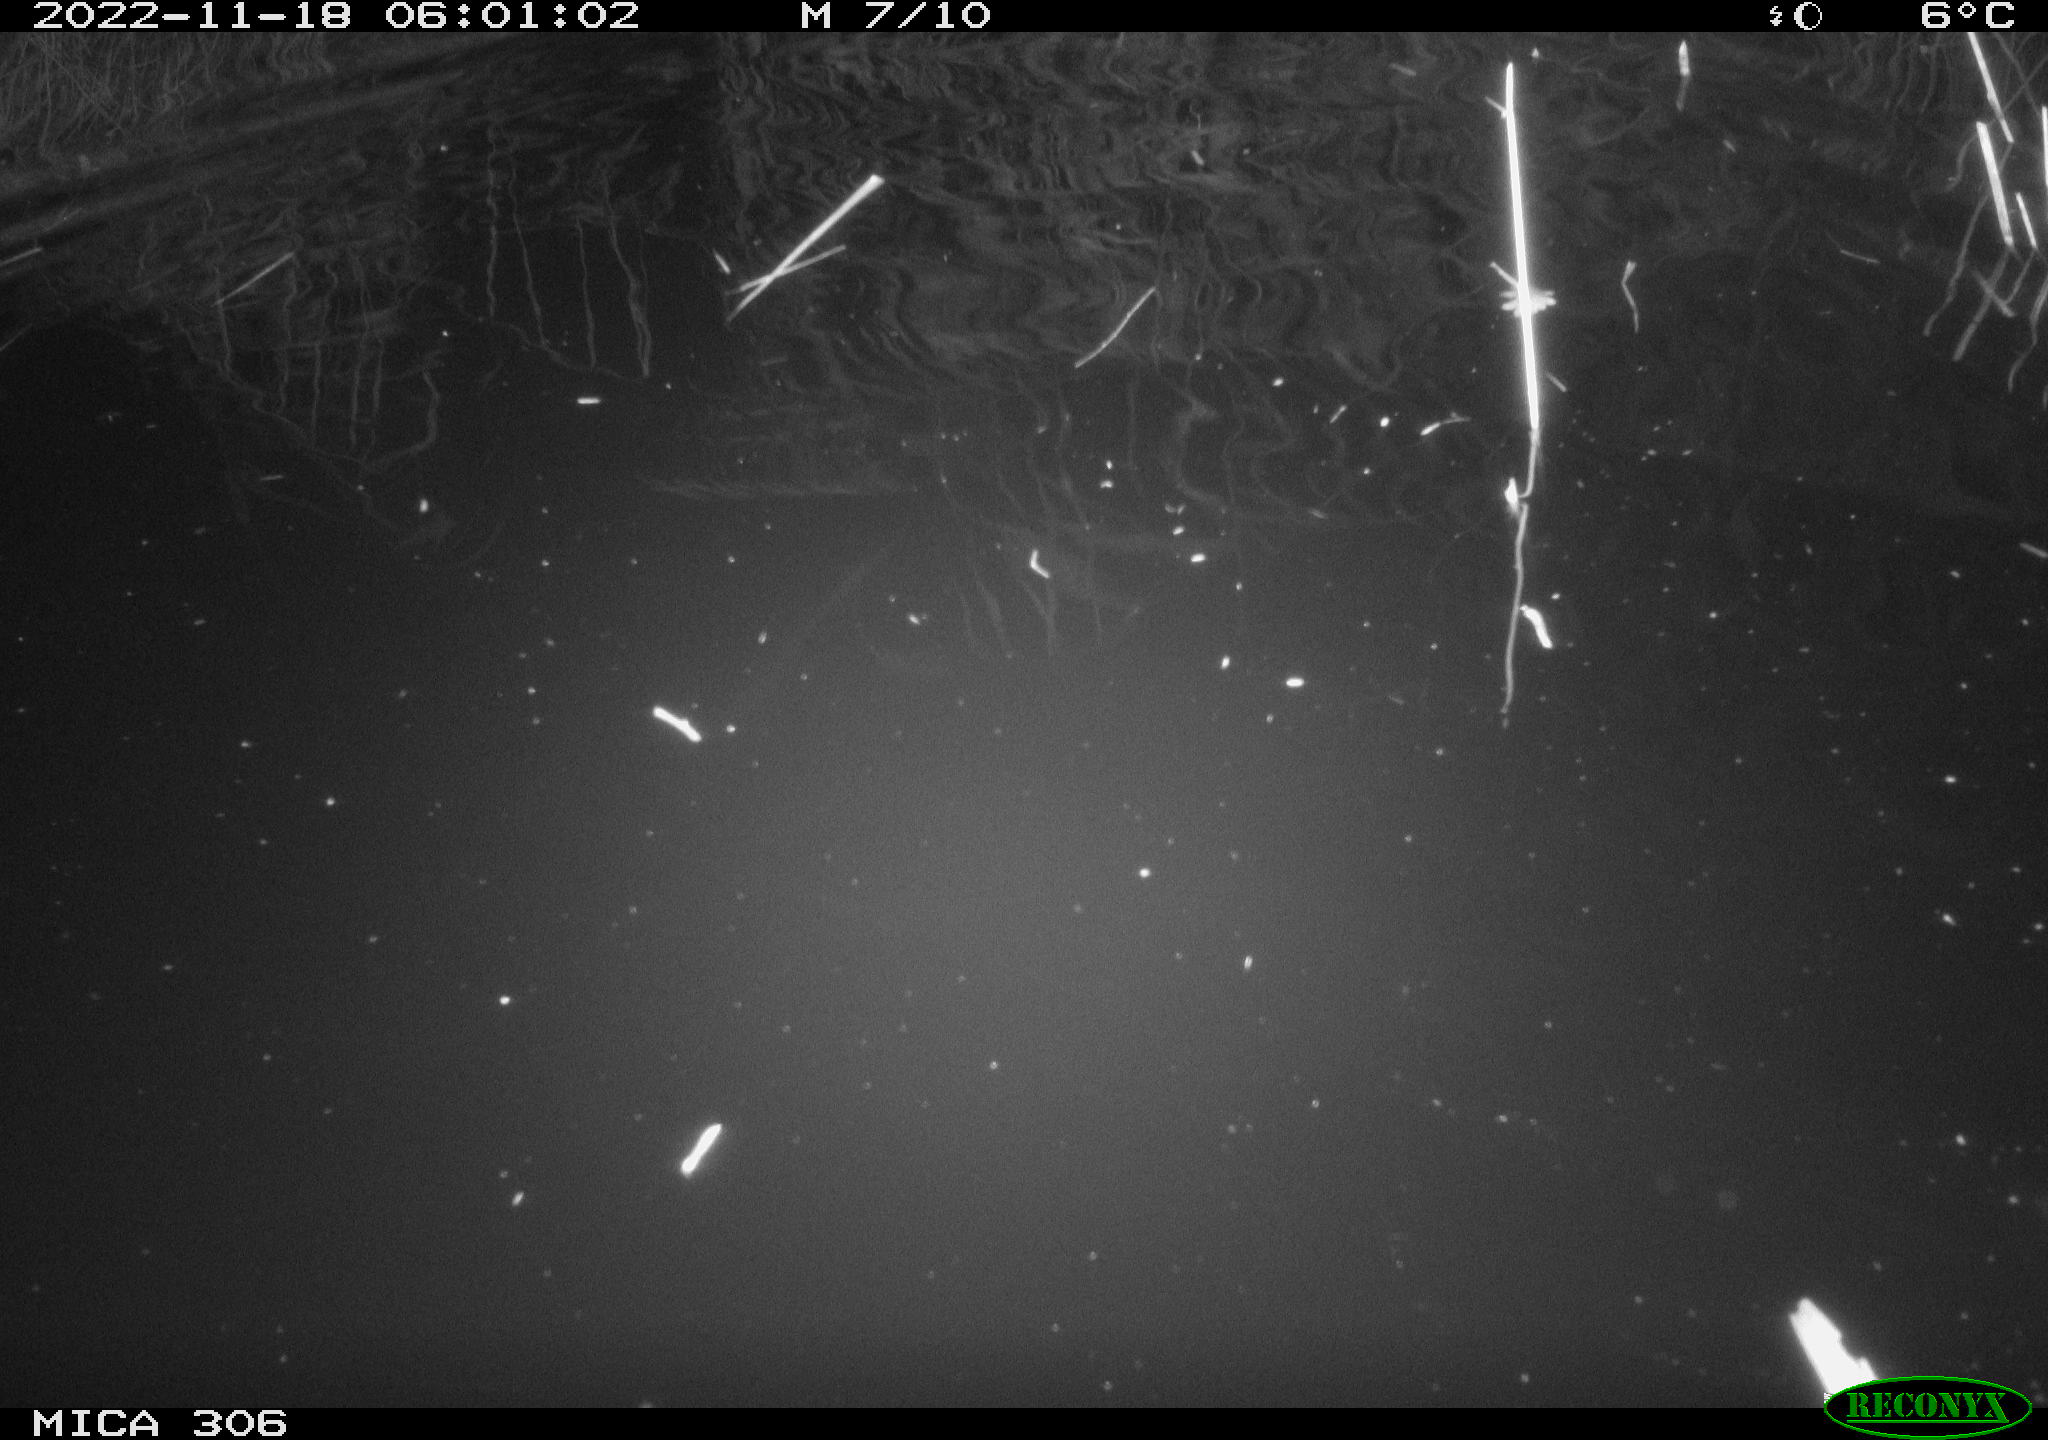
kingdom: Animalia
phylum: Chordata
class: Mammalia
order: Rodentia
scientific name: Rodentia
